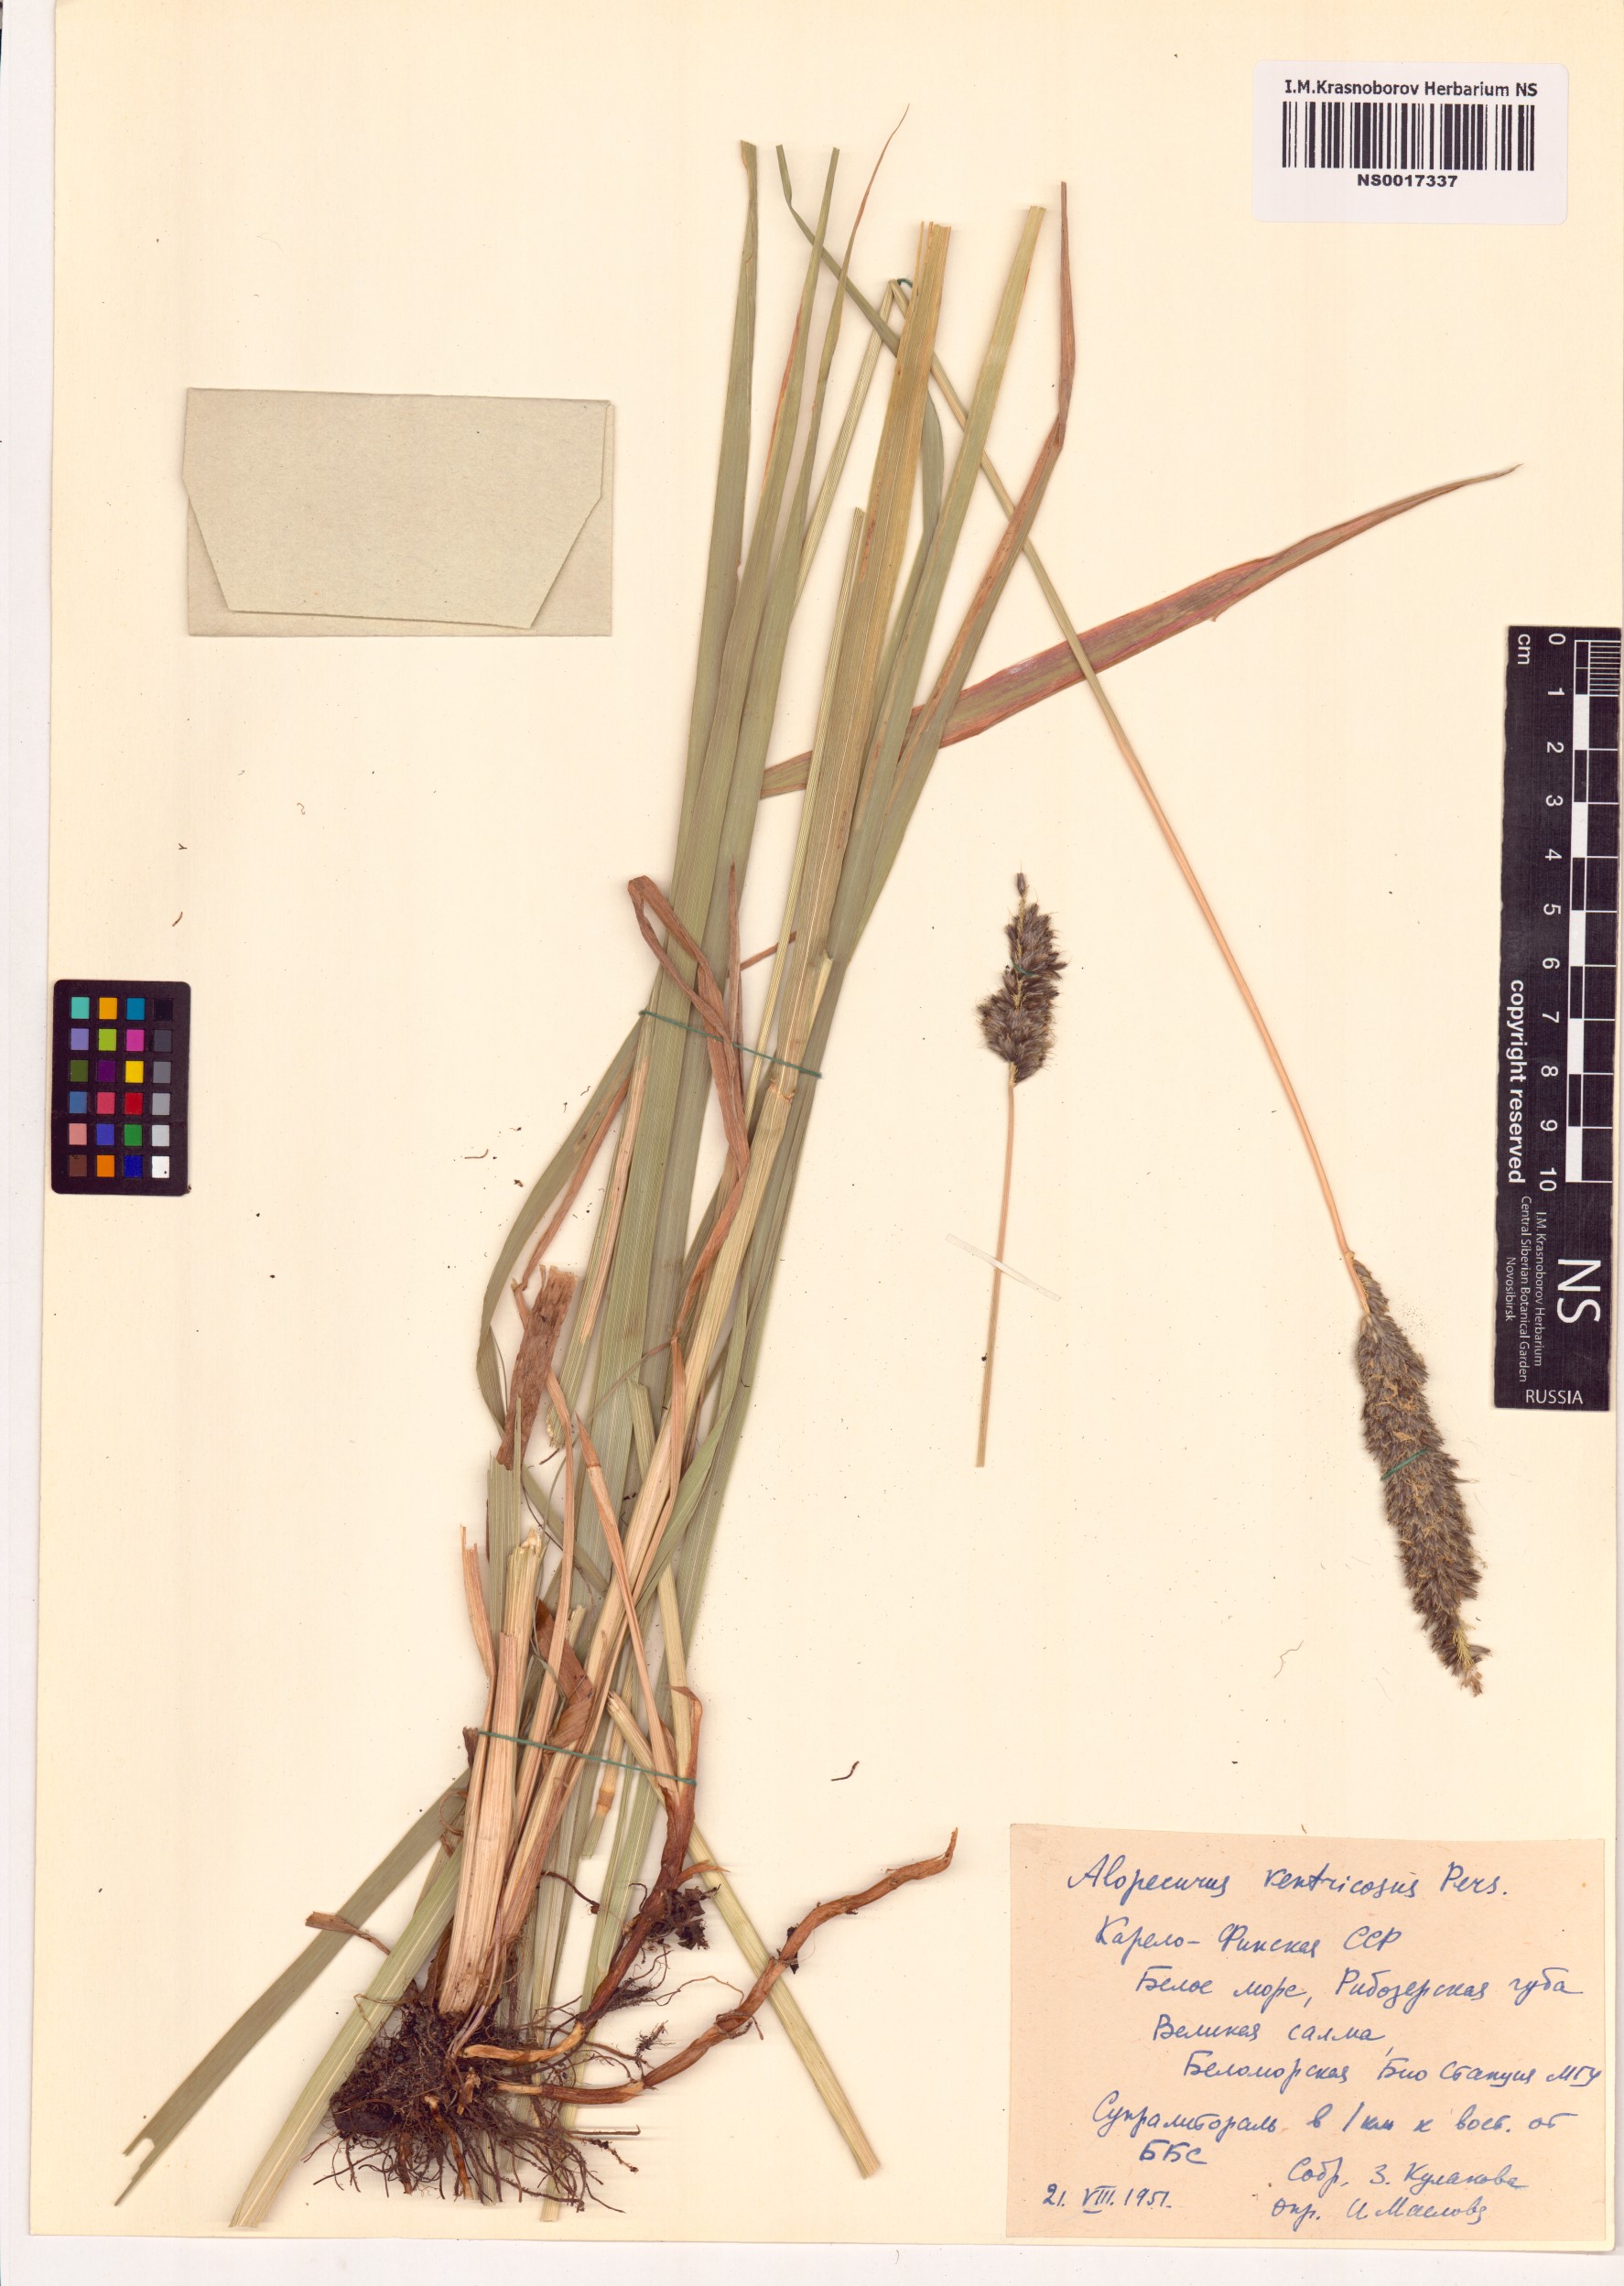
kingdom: Plantae
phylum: Tracheophyta
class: Liliopsida
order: Poales
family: Poaceae
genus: Alopecurus
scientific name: Alopecurus arundinaceus
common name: Creeping meadow foxtail
